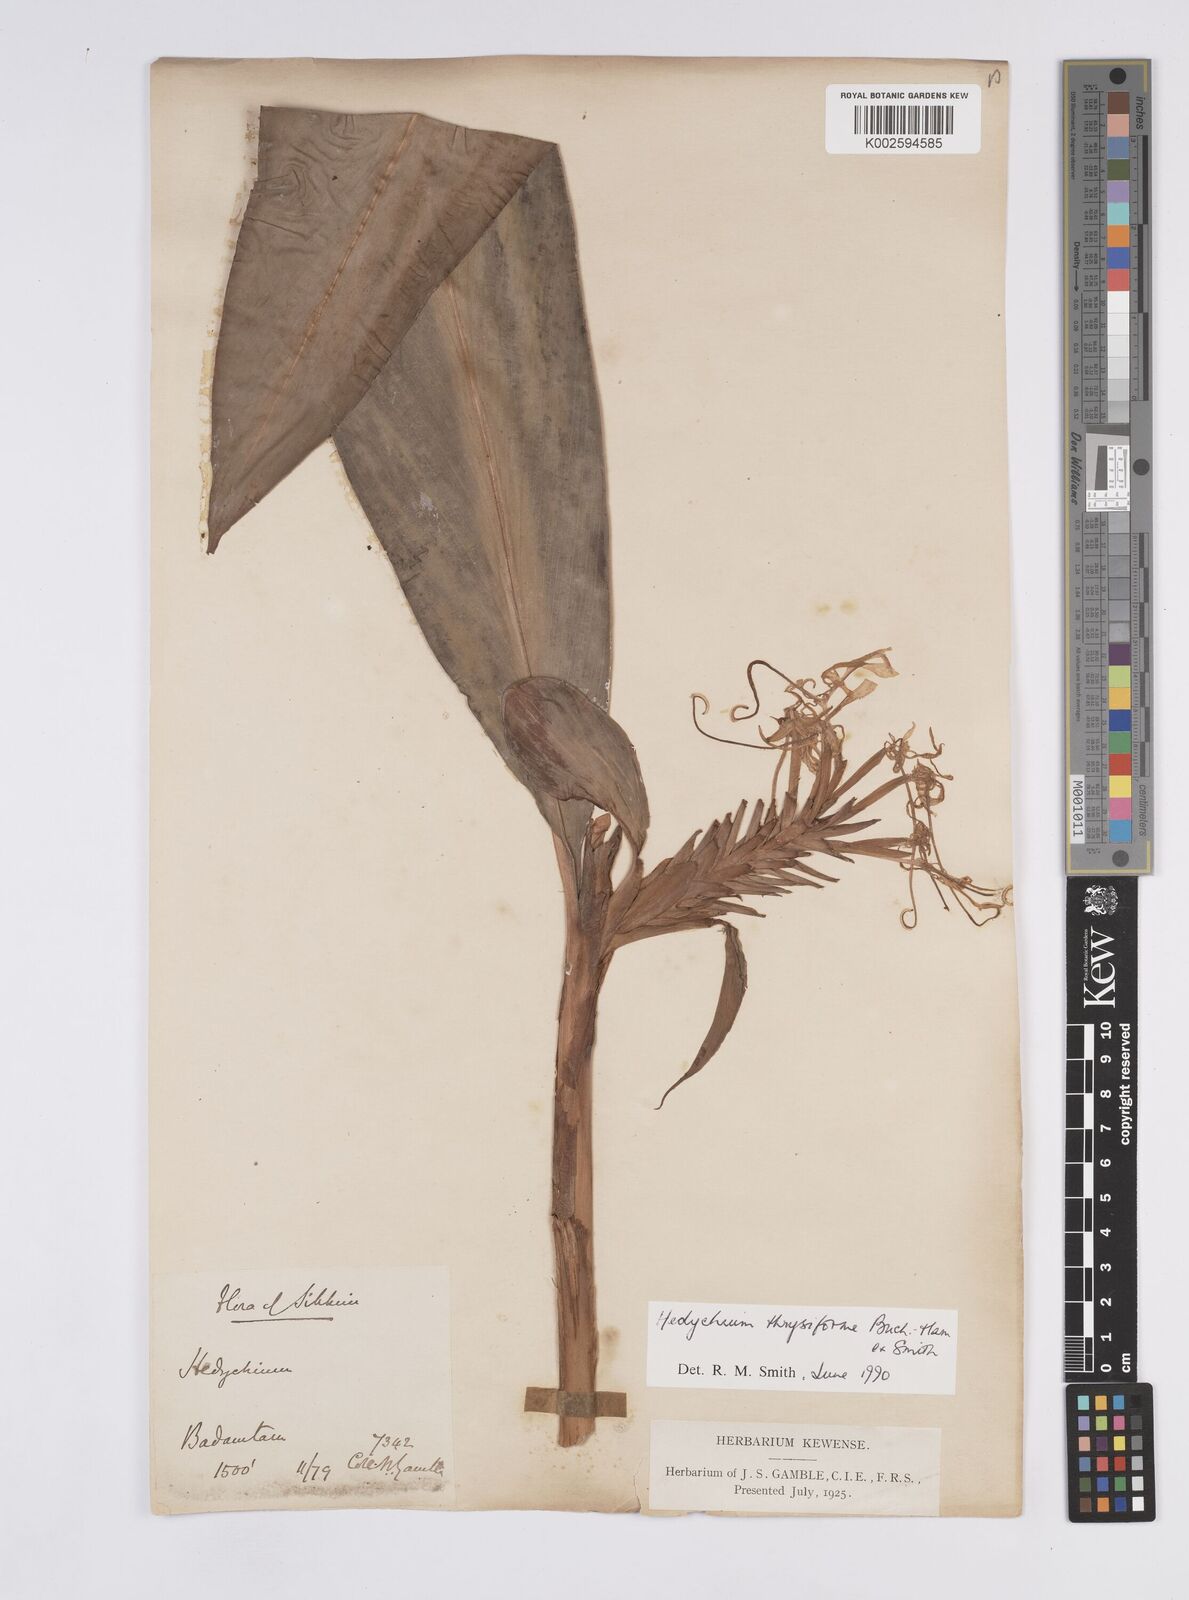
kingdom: Plantae
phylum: Tracheophyta
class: Liliopsida
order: Zingiberales
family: Zingiberaceae
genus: Hedychium
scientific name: Hedychium
